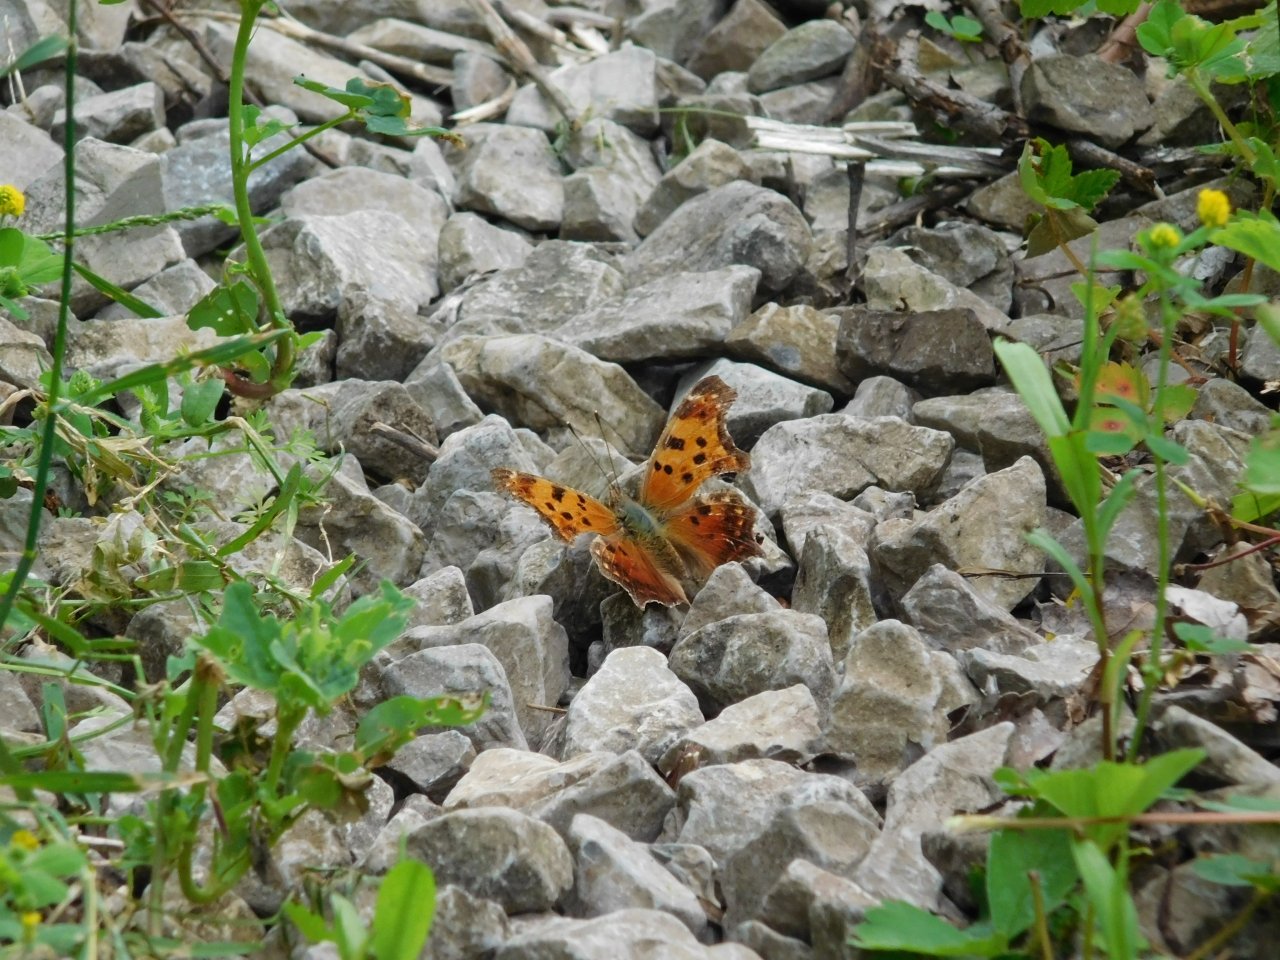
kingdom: Animalia
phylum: Arthropoda
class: Insecta
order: Lepidoptera
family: Nymphalidae
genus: Polygonia
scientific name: Polygonia comma
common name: Eastern Comma
